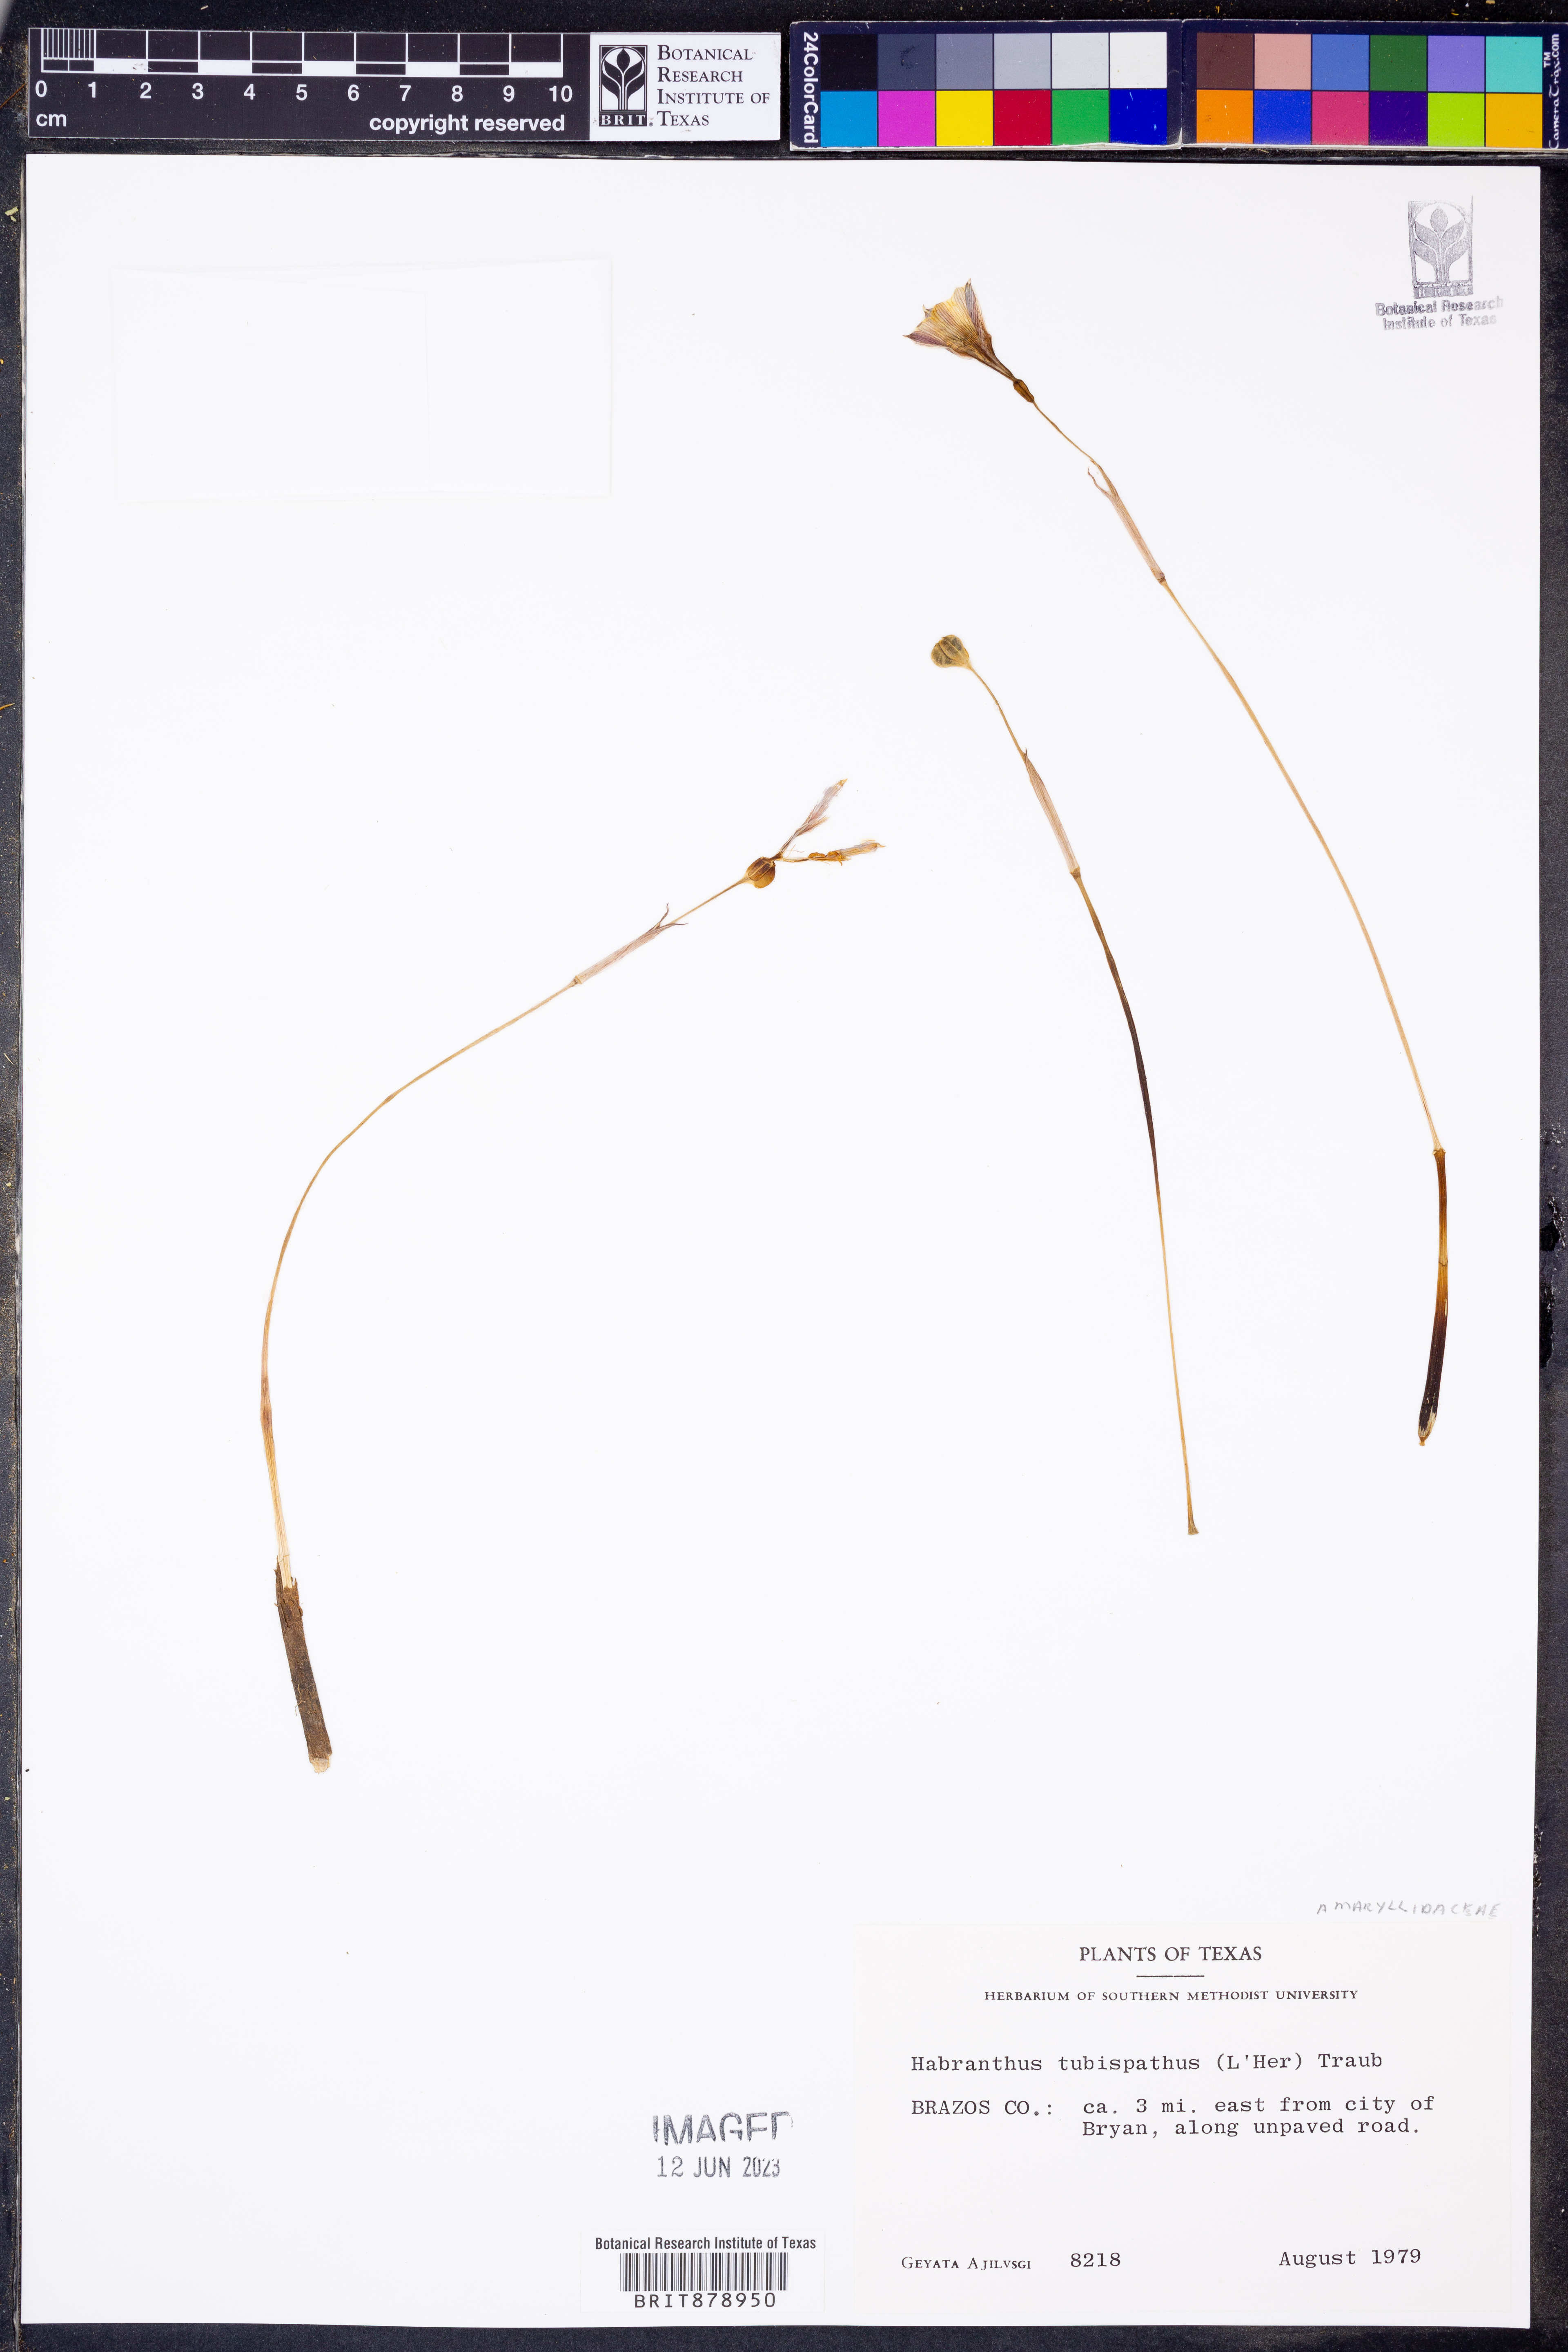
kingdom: Plantae
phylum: Tracheophyta
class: Liliopsida
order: Asparagales
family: Amaryllidaceae
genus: Zephyranthes
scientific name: Zephyranthes tubispatha
